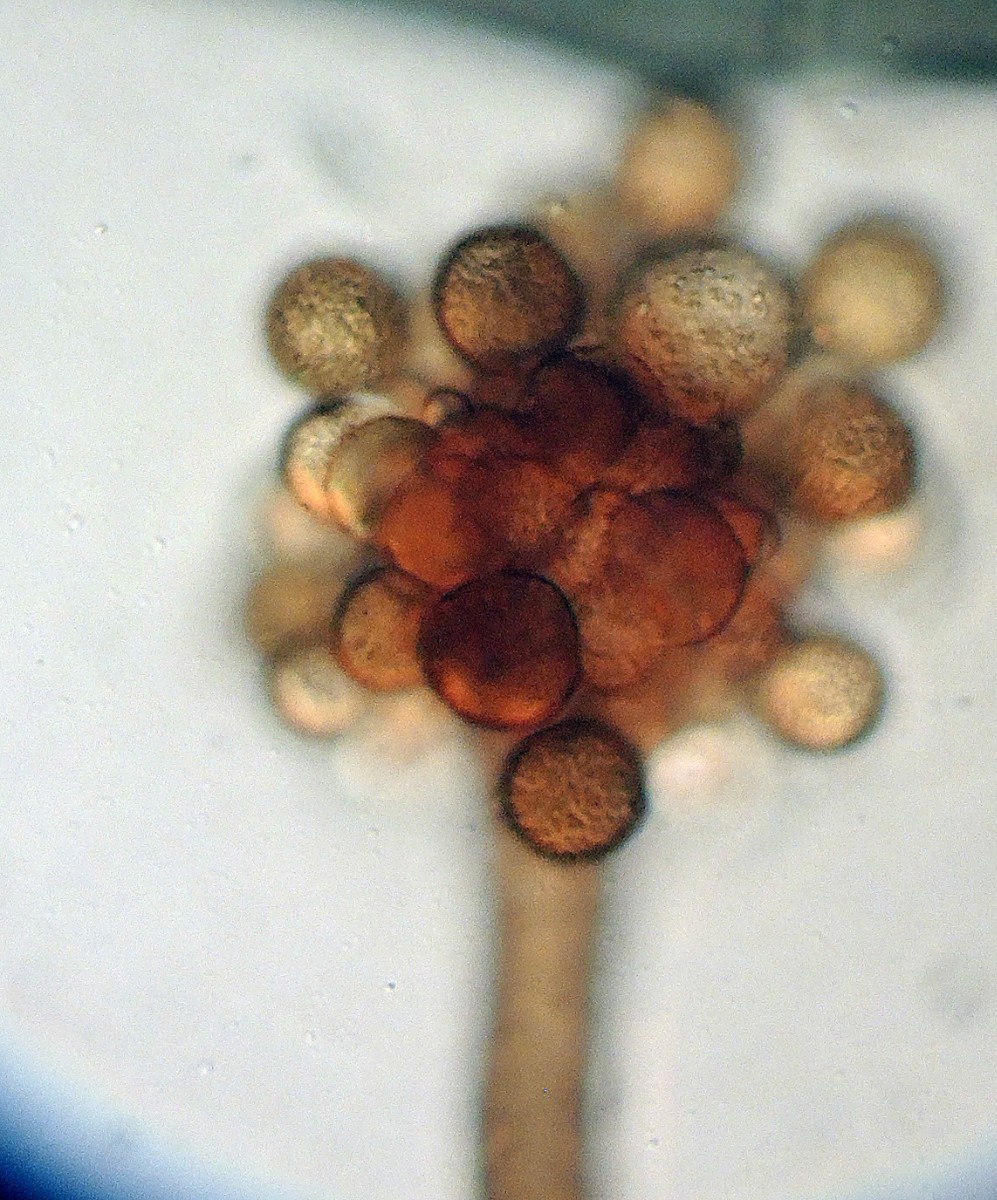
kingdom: Fungi
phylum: Ascomycota
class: Dothideomycetes
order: Pleosporales
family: Periconiaceae
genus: Periconia
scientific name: Periconia cookei
